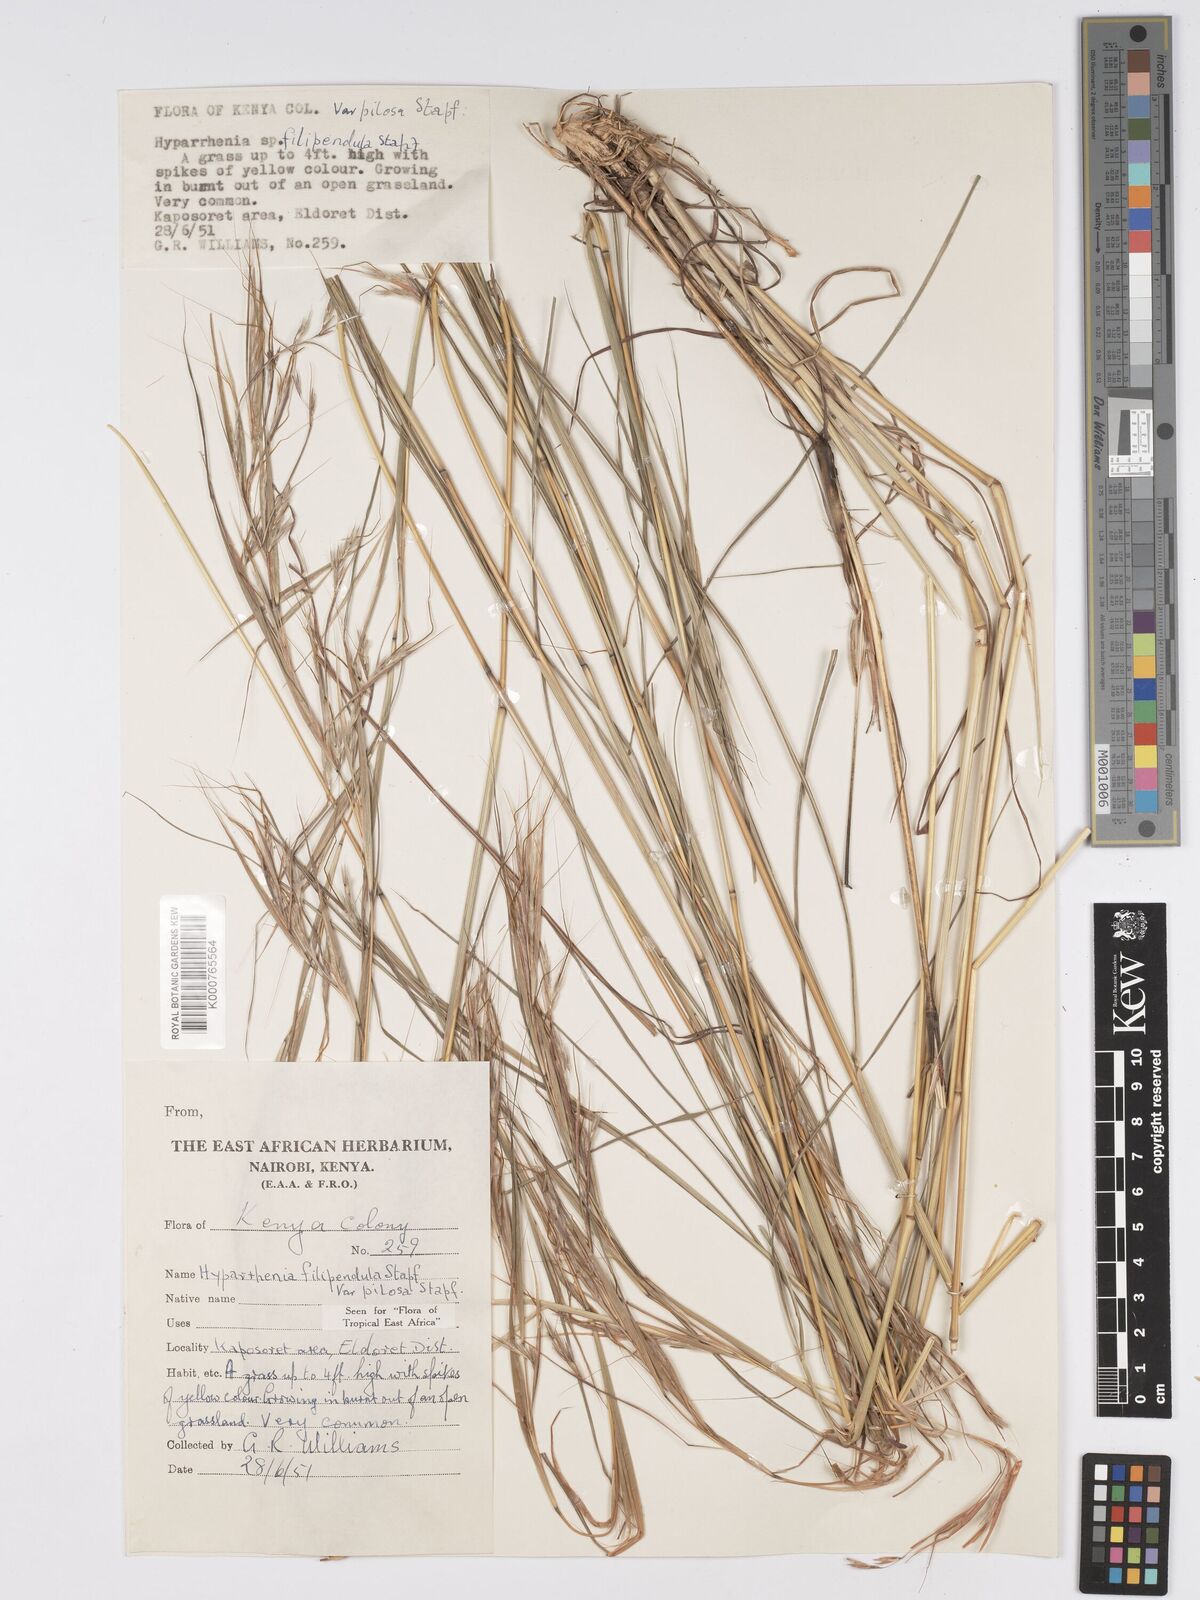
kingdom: Plantae
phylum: Tracheophyta
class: Liliopsida
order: Poales
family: Poaceae
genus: Hyparrhenia
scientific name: Hyparrhenia filipendula
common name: Tambookie grass
